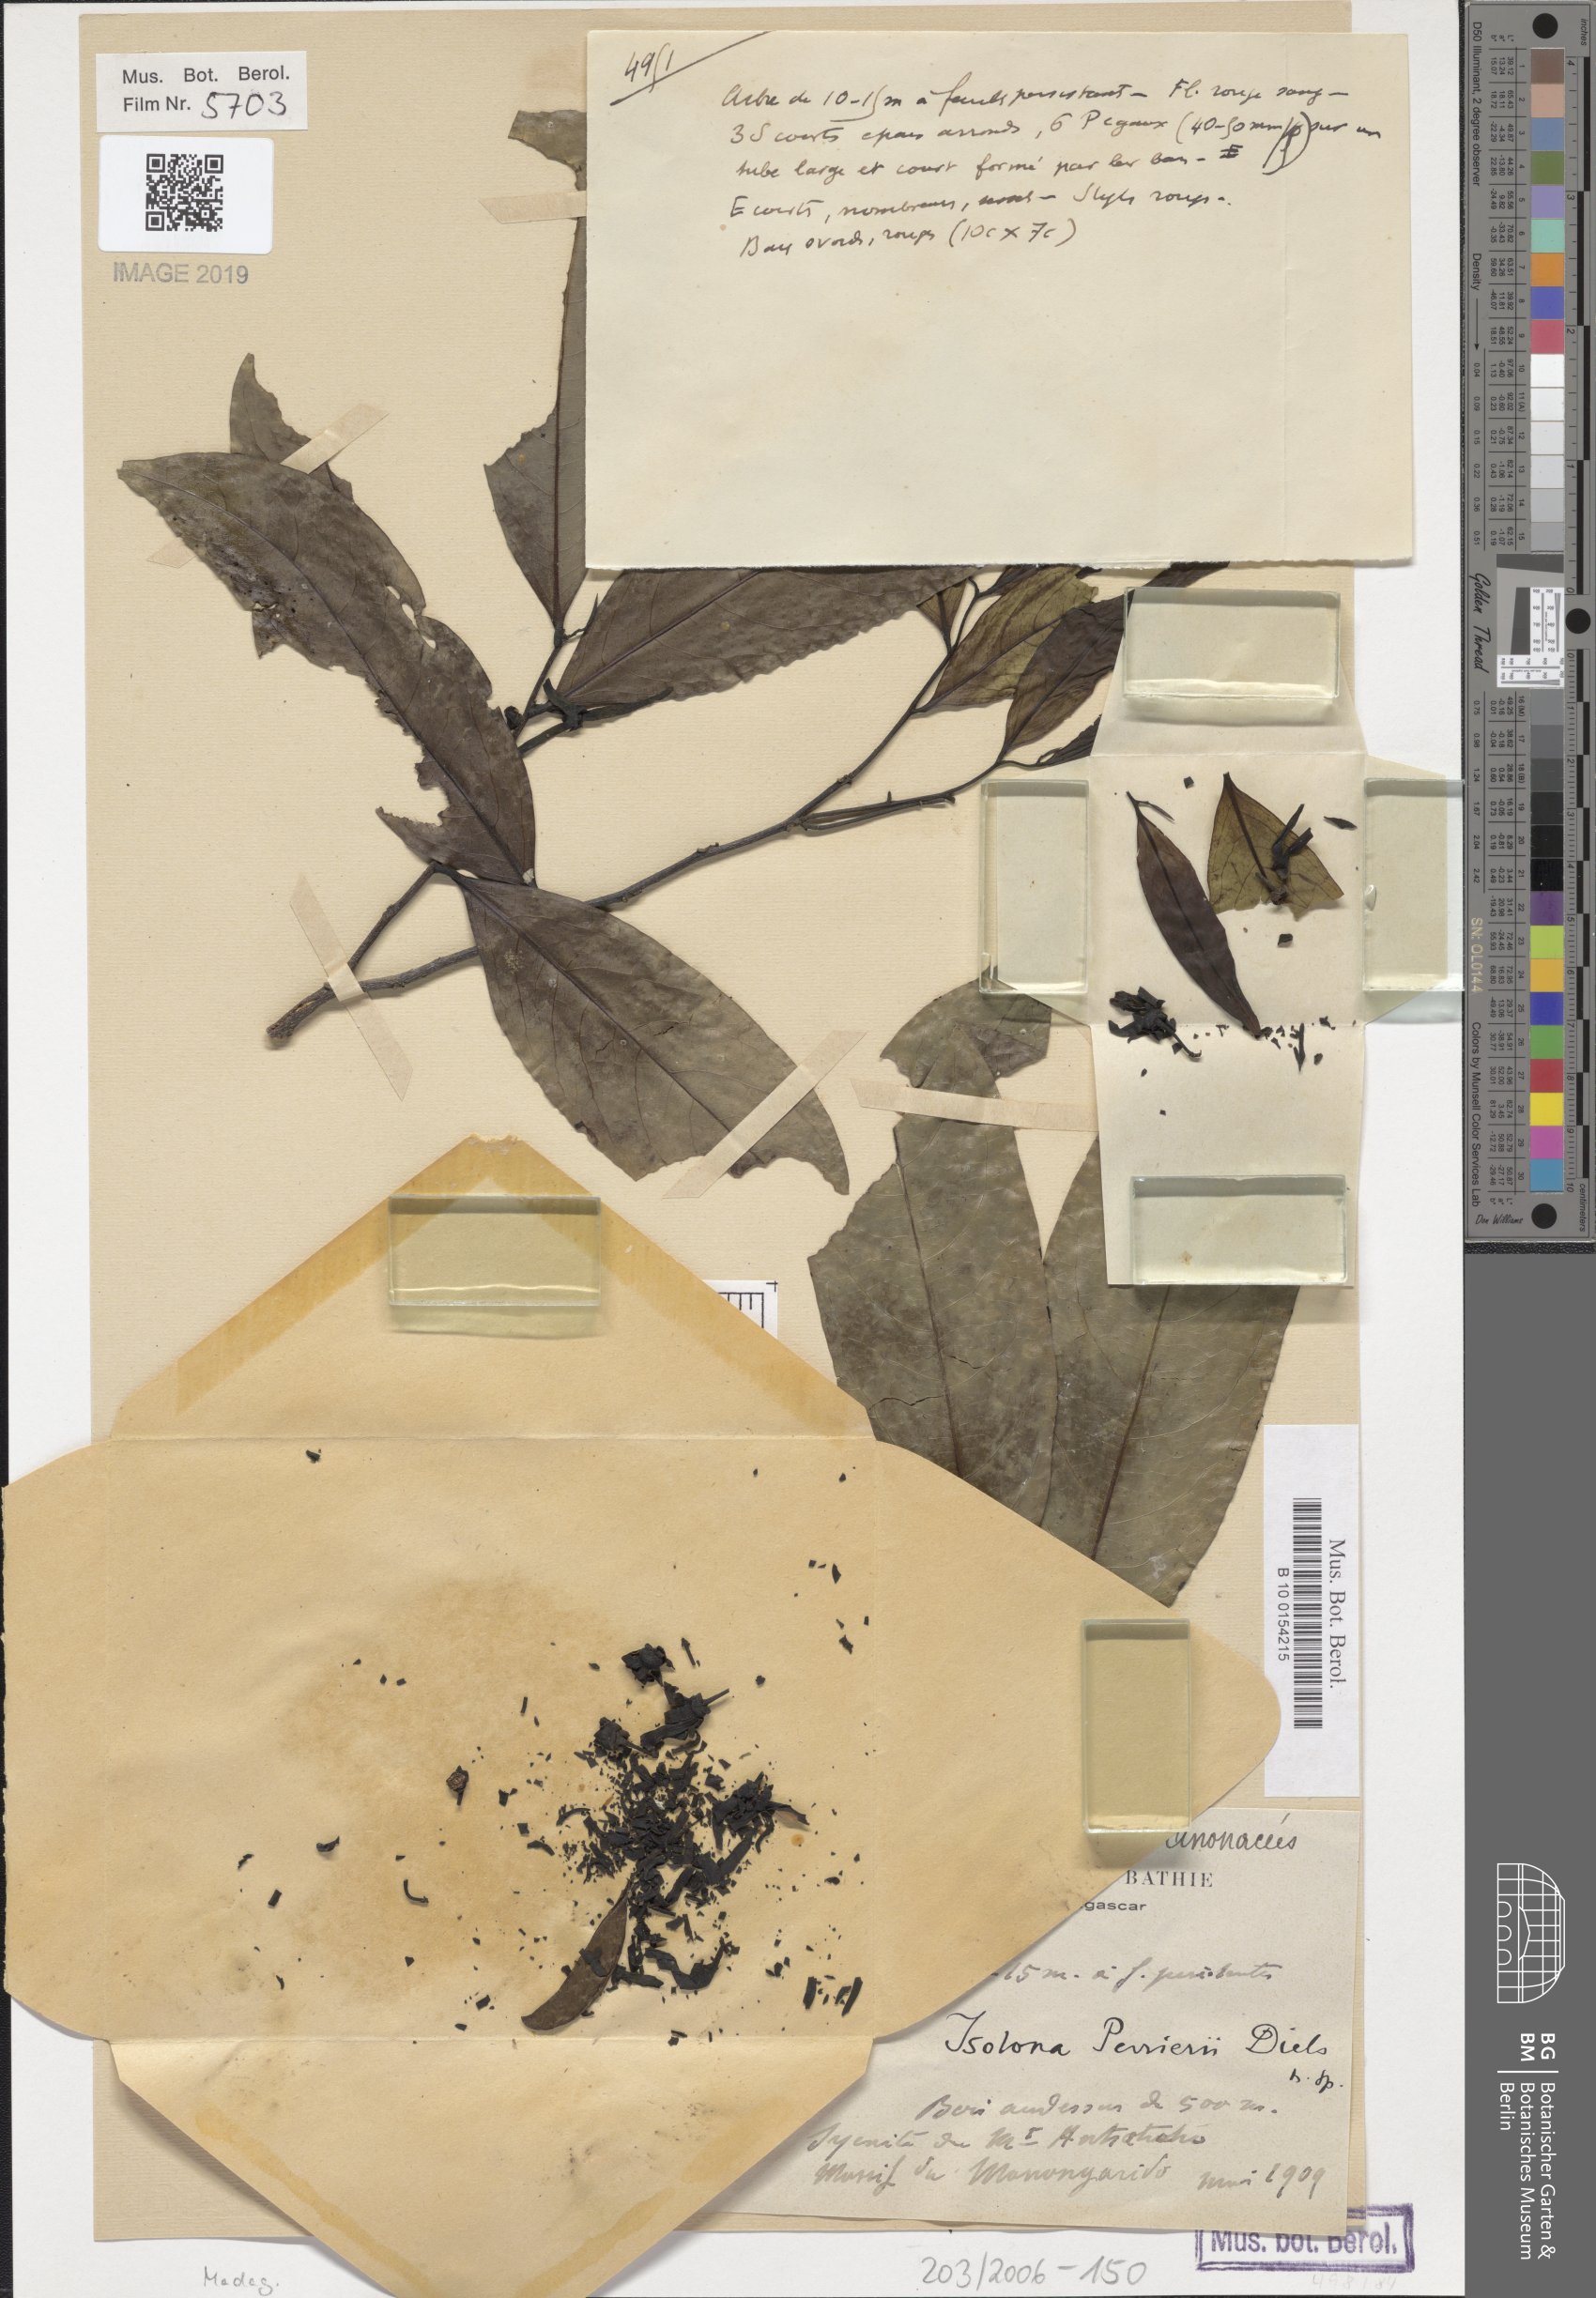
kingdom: Plantae
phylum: Tracheophyta
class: Magnoliopsida
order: Magnoliales
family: Annonaceae
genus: Isolona
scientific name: Isolona perrierii
